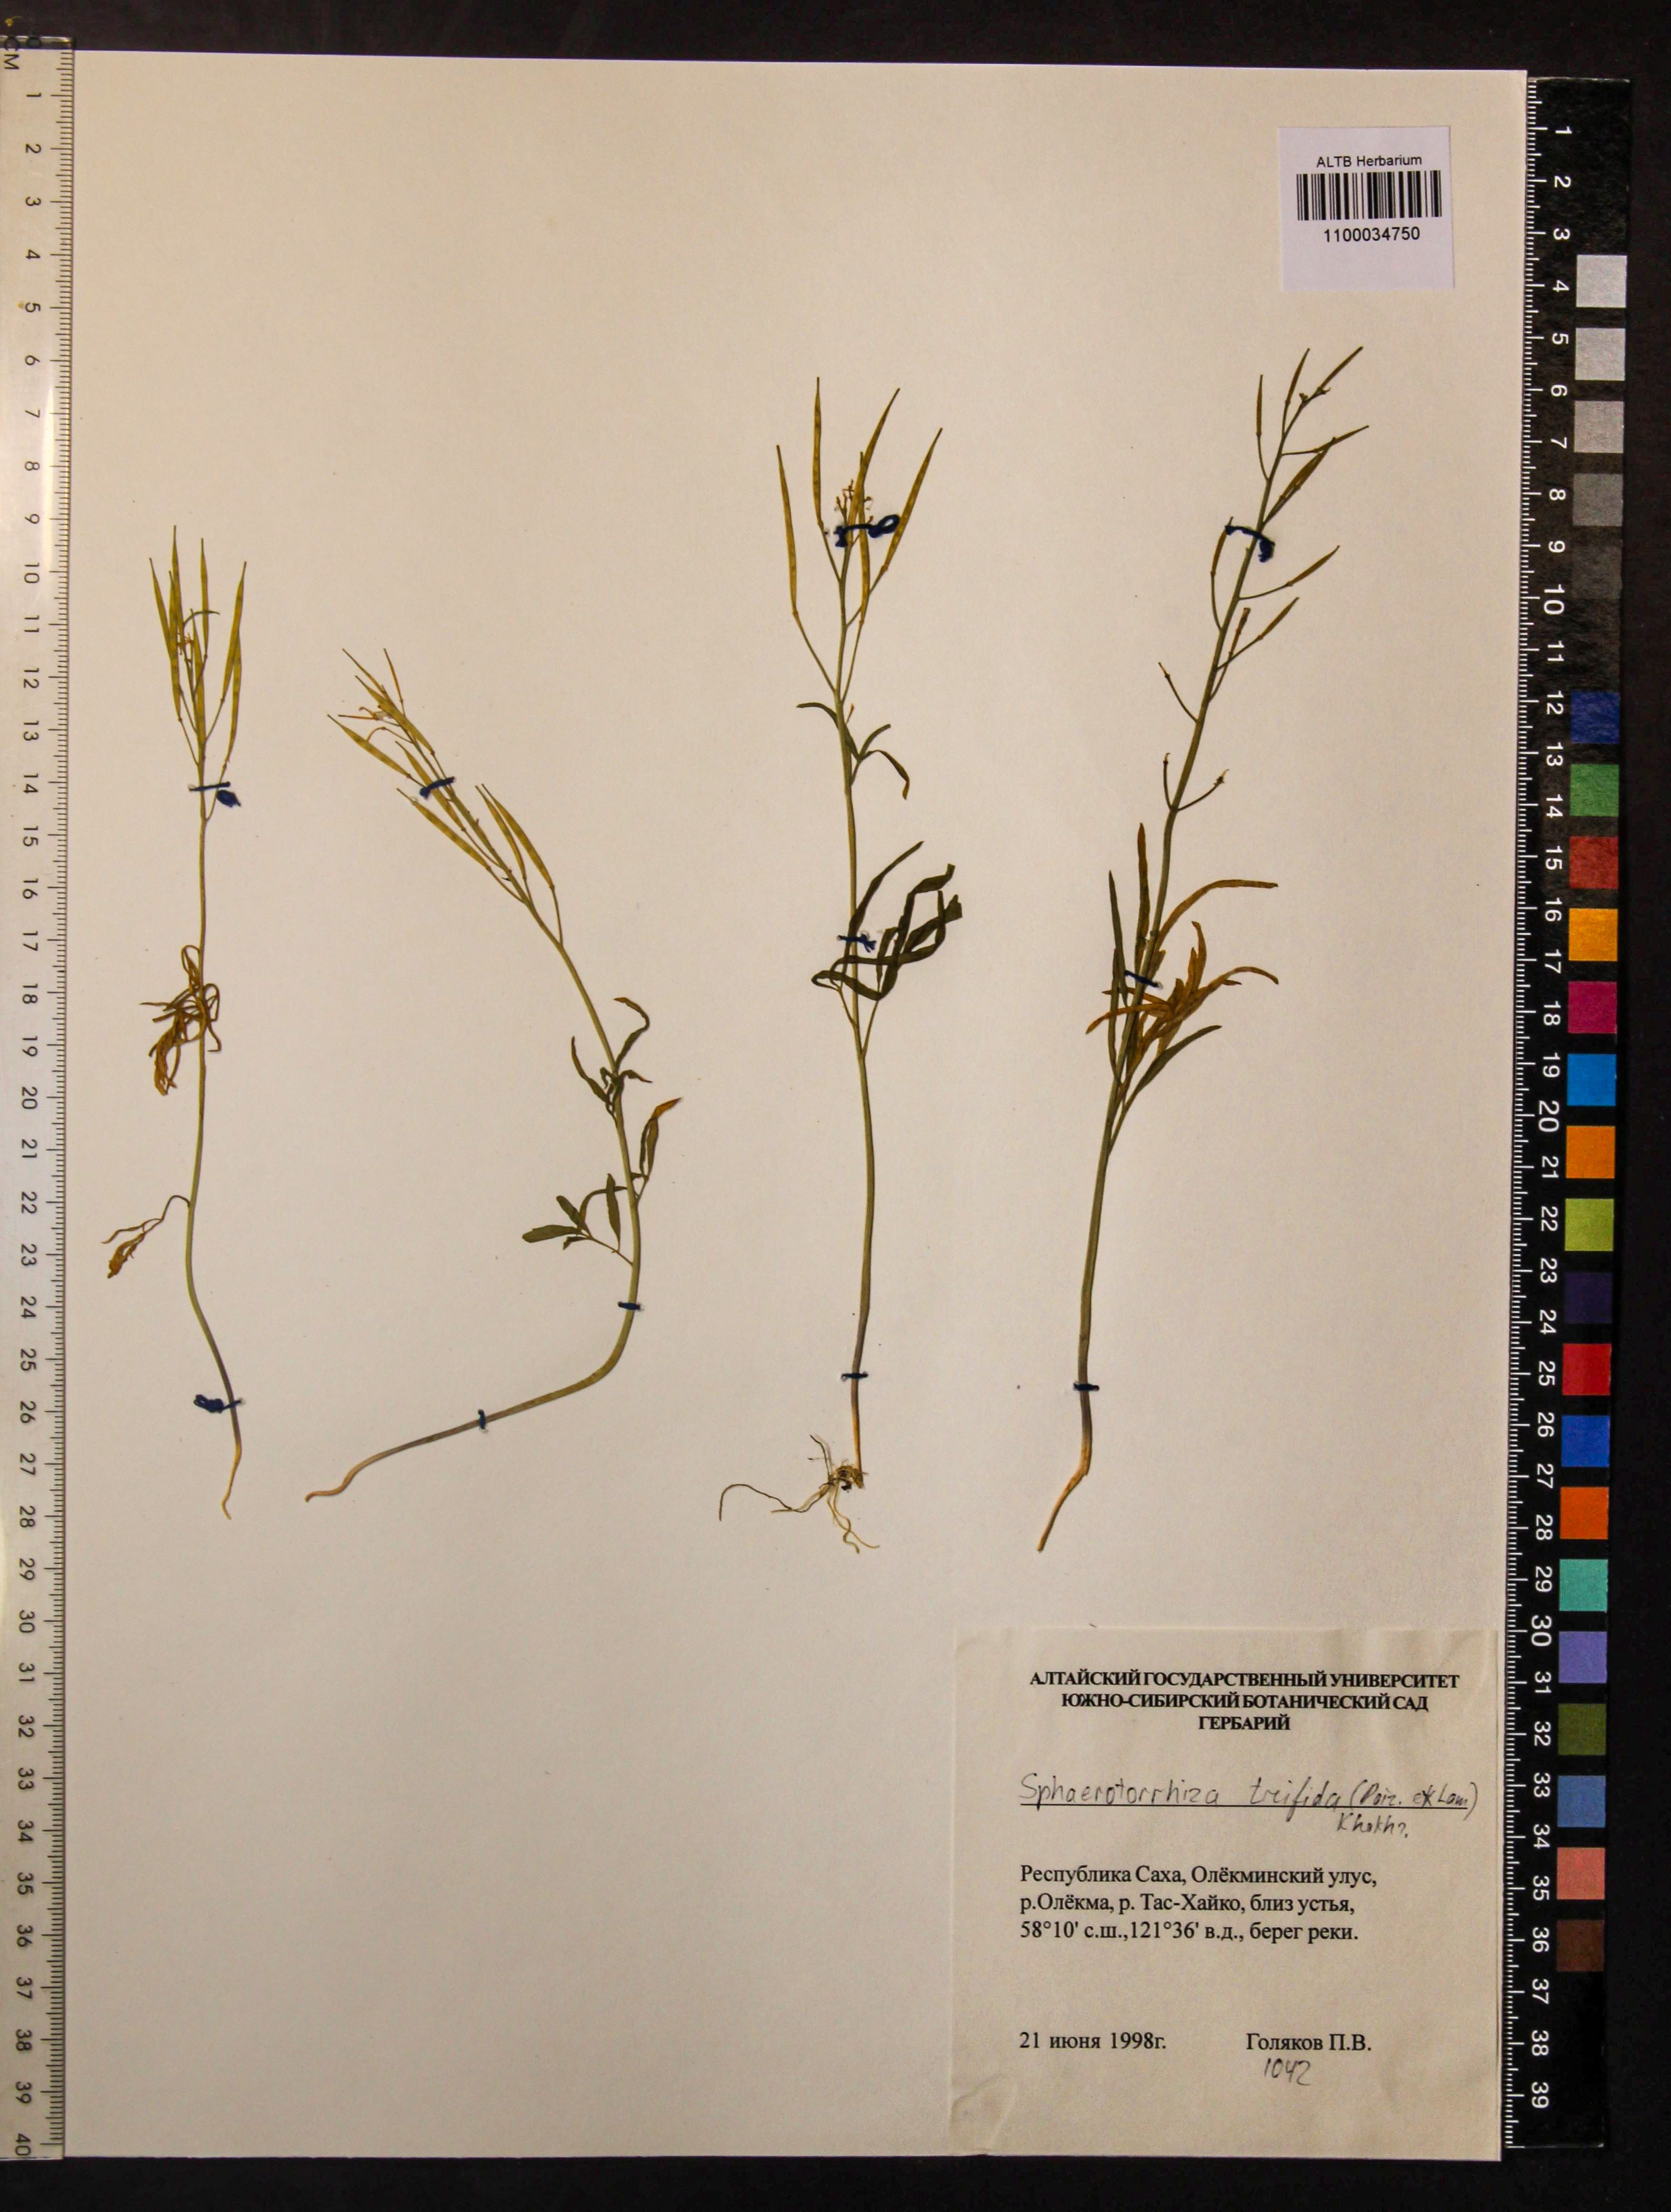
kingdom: Plantae
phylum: Tracheophyta
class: Magnoliopsida
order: Brassicales
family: Brassicaceae
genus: Cardamine
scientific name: Cardamine trifida
